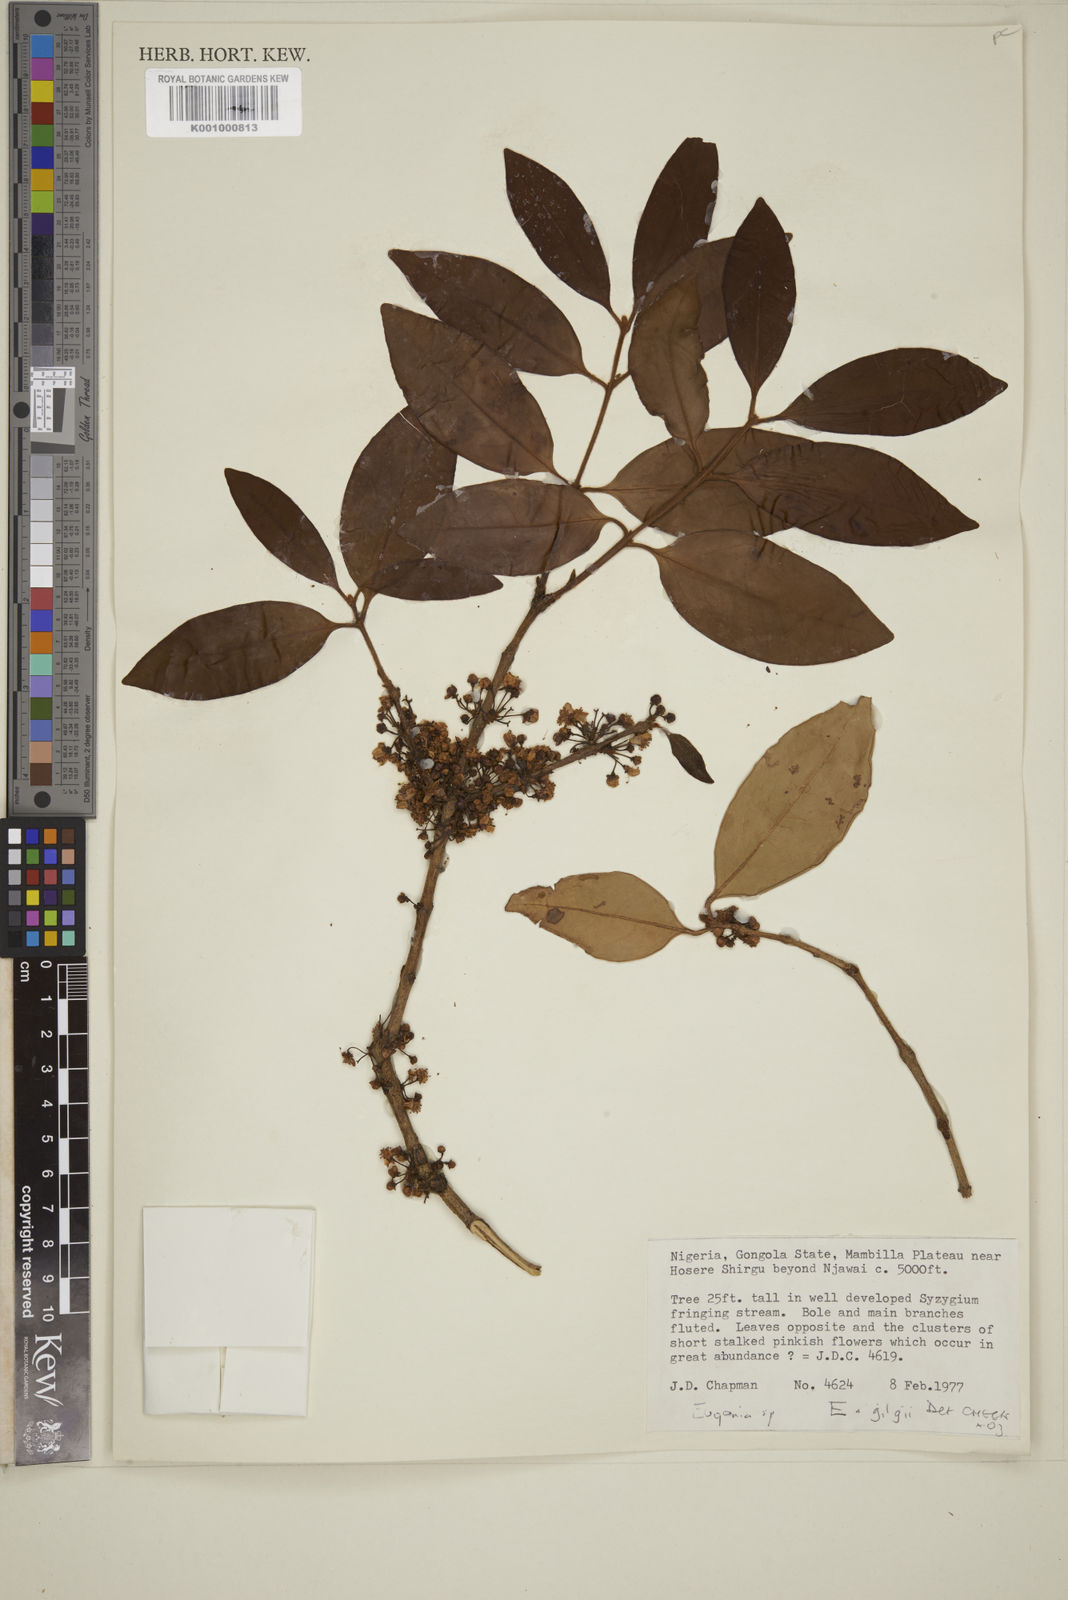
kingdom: Plantae
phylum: Tracheophyta
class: Magnoliopsida
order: Myrtales
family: Myrtaceae
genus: Eugenia
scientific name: Eugenia
